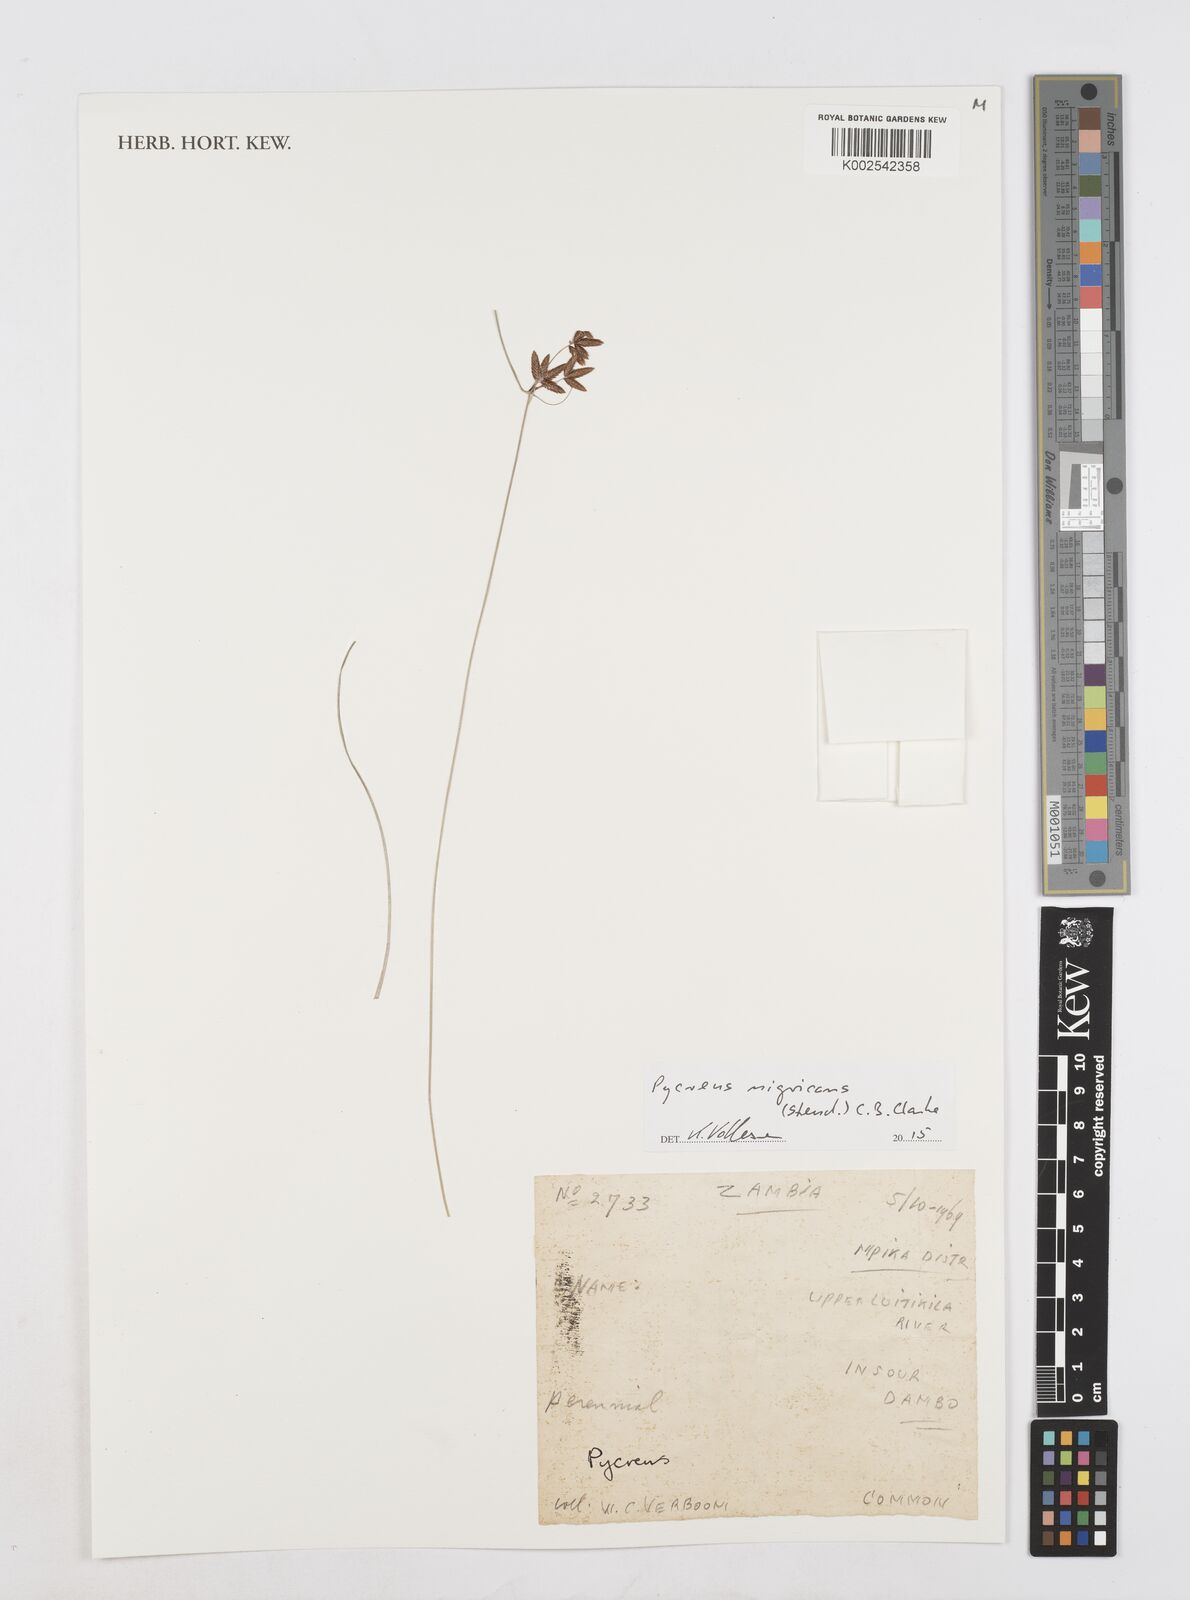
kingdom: Plantae
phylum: Tracheophyta
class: Liliopsida
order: Poales
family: Cyperaceae
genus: Cyperus
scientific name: Cyperus nigricans
